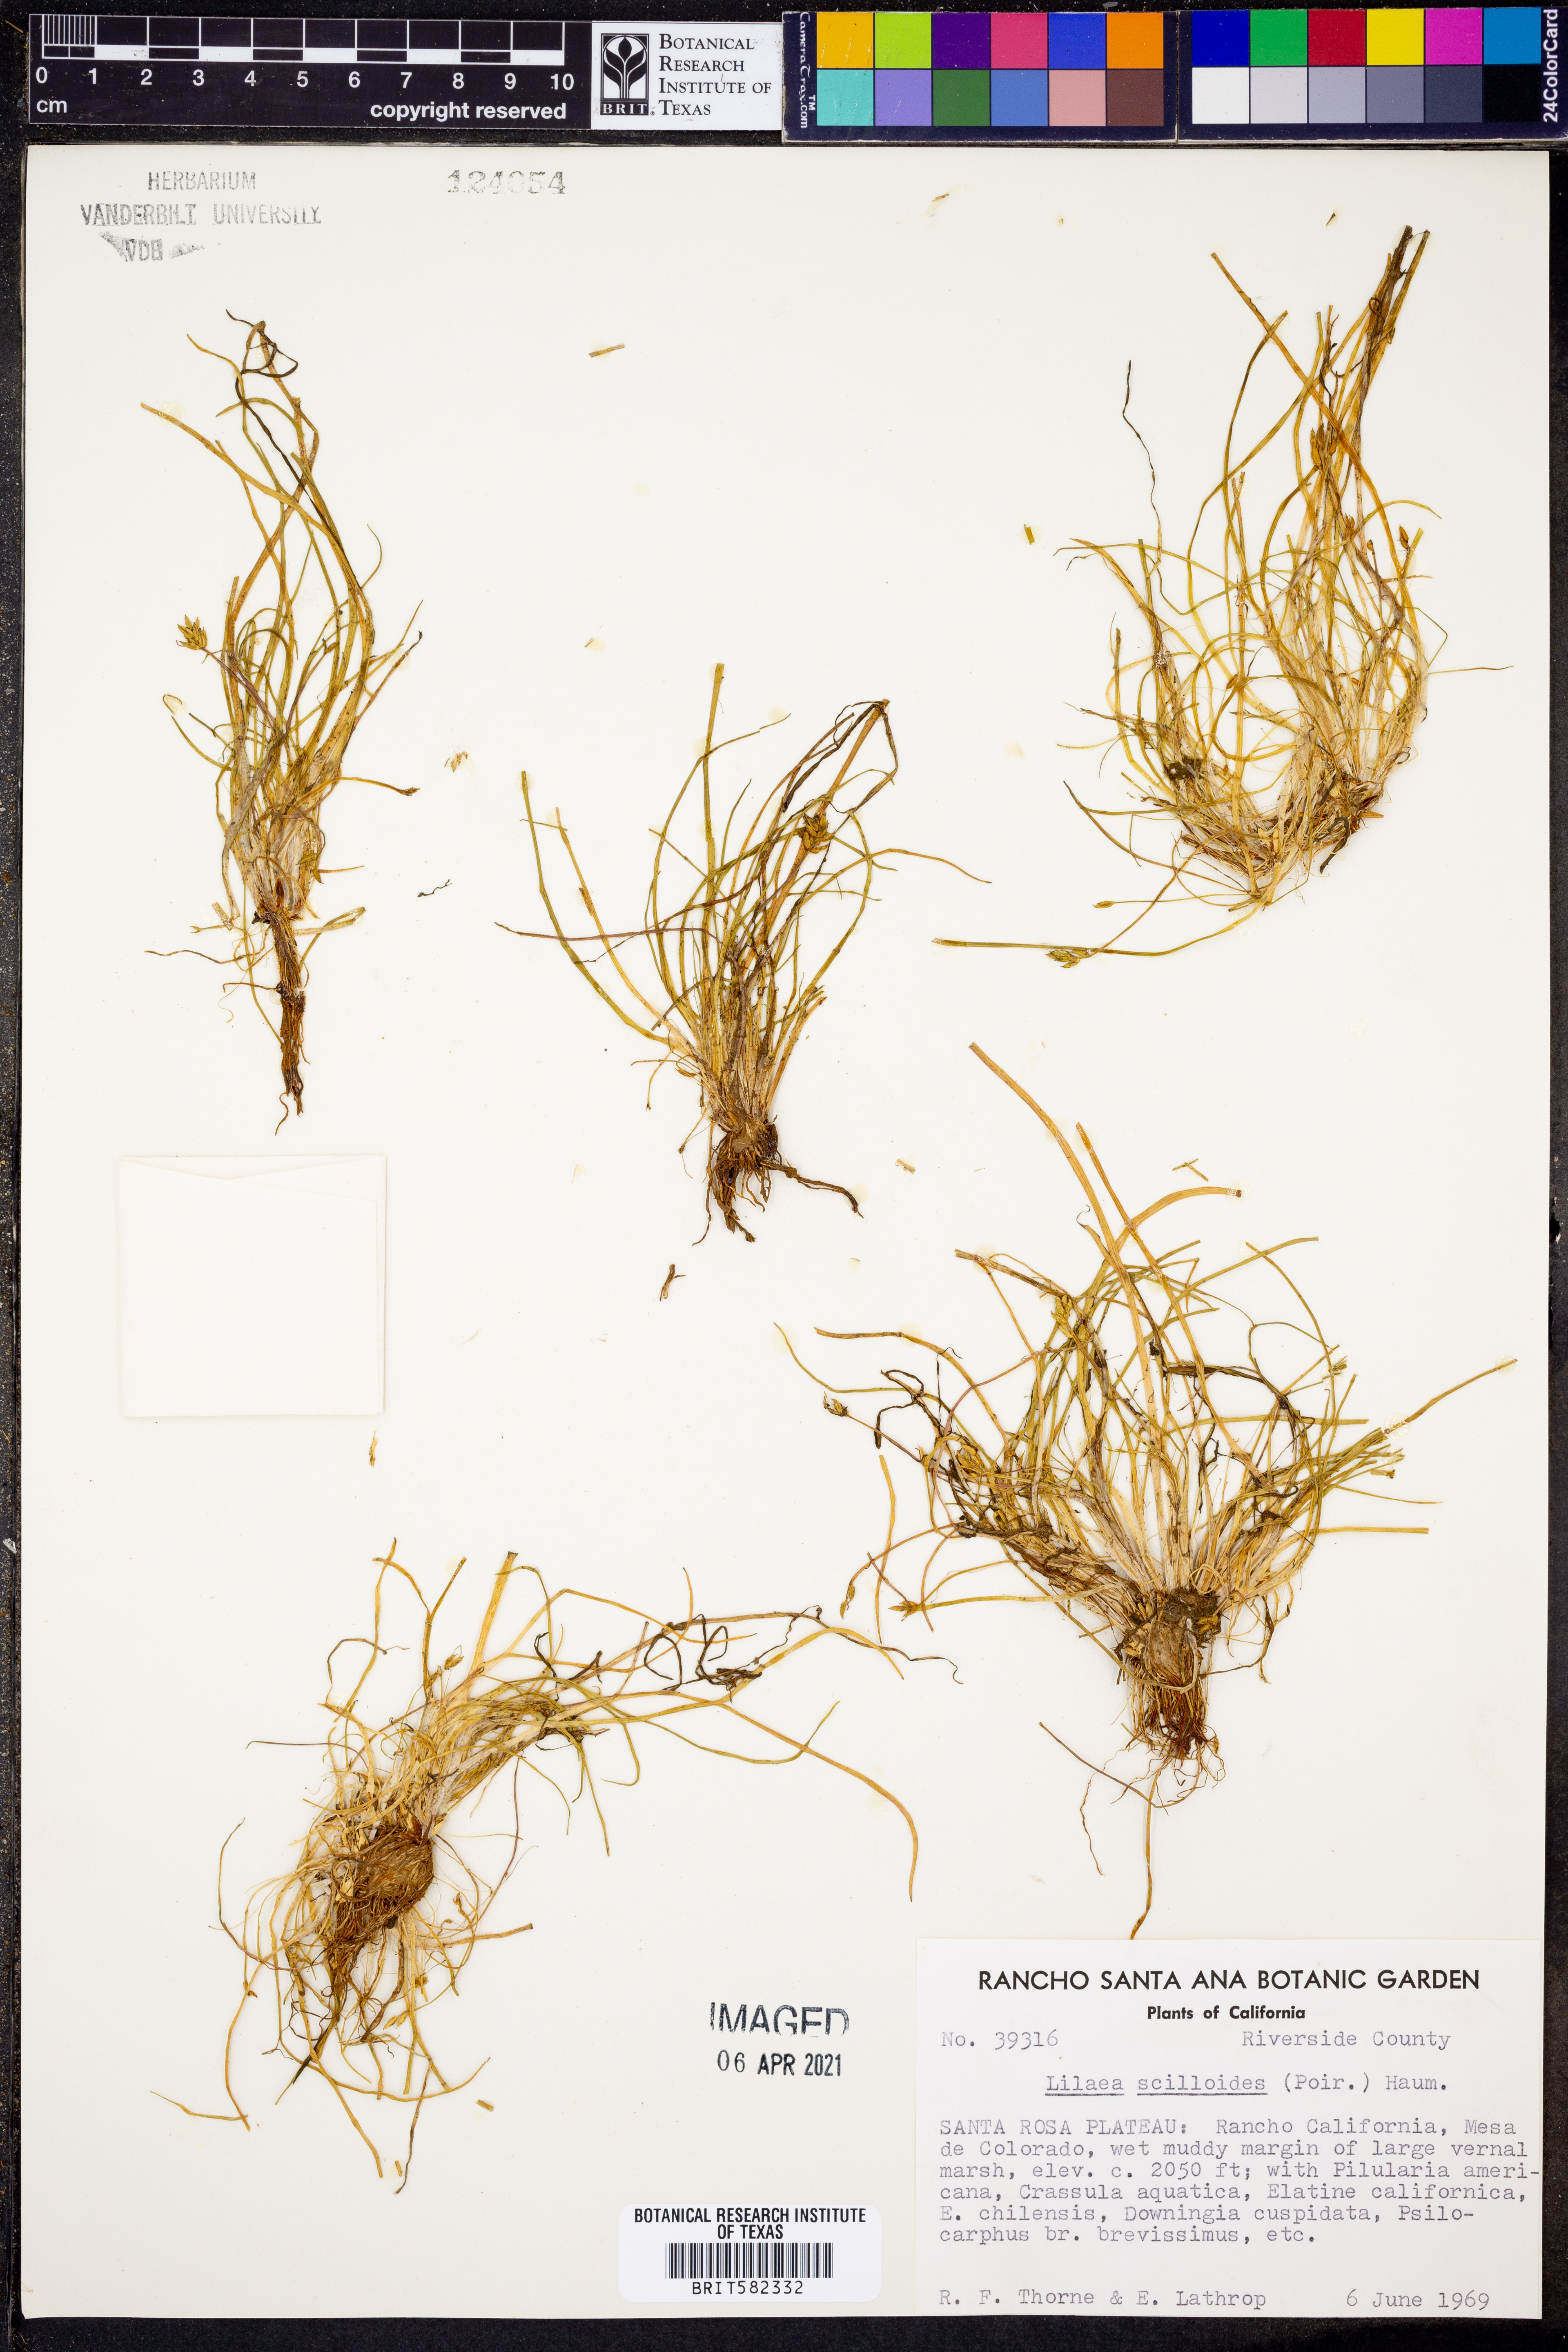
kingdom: Plantae
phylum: Tracheophyta
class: Liliopsida
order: Alismatales
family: Juncaginaceae
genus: Triglochin
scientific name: Triglochin scilloides
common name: Awl-leaved lilaea
